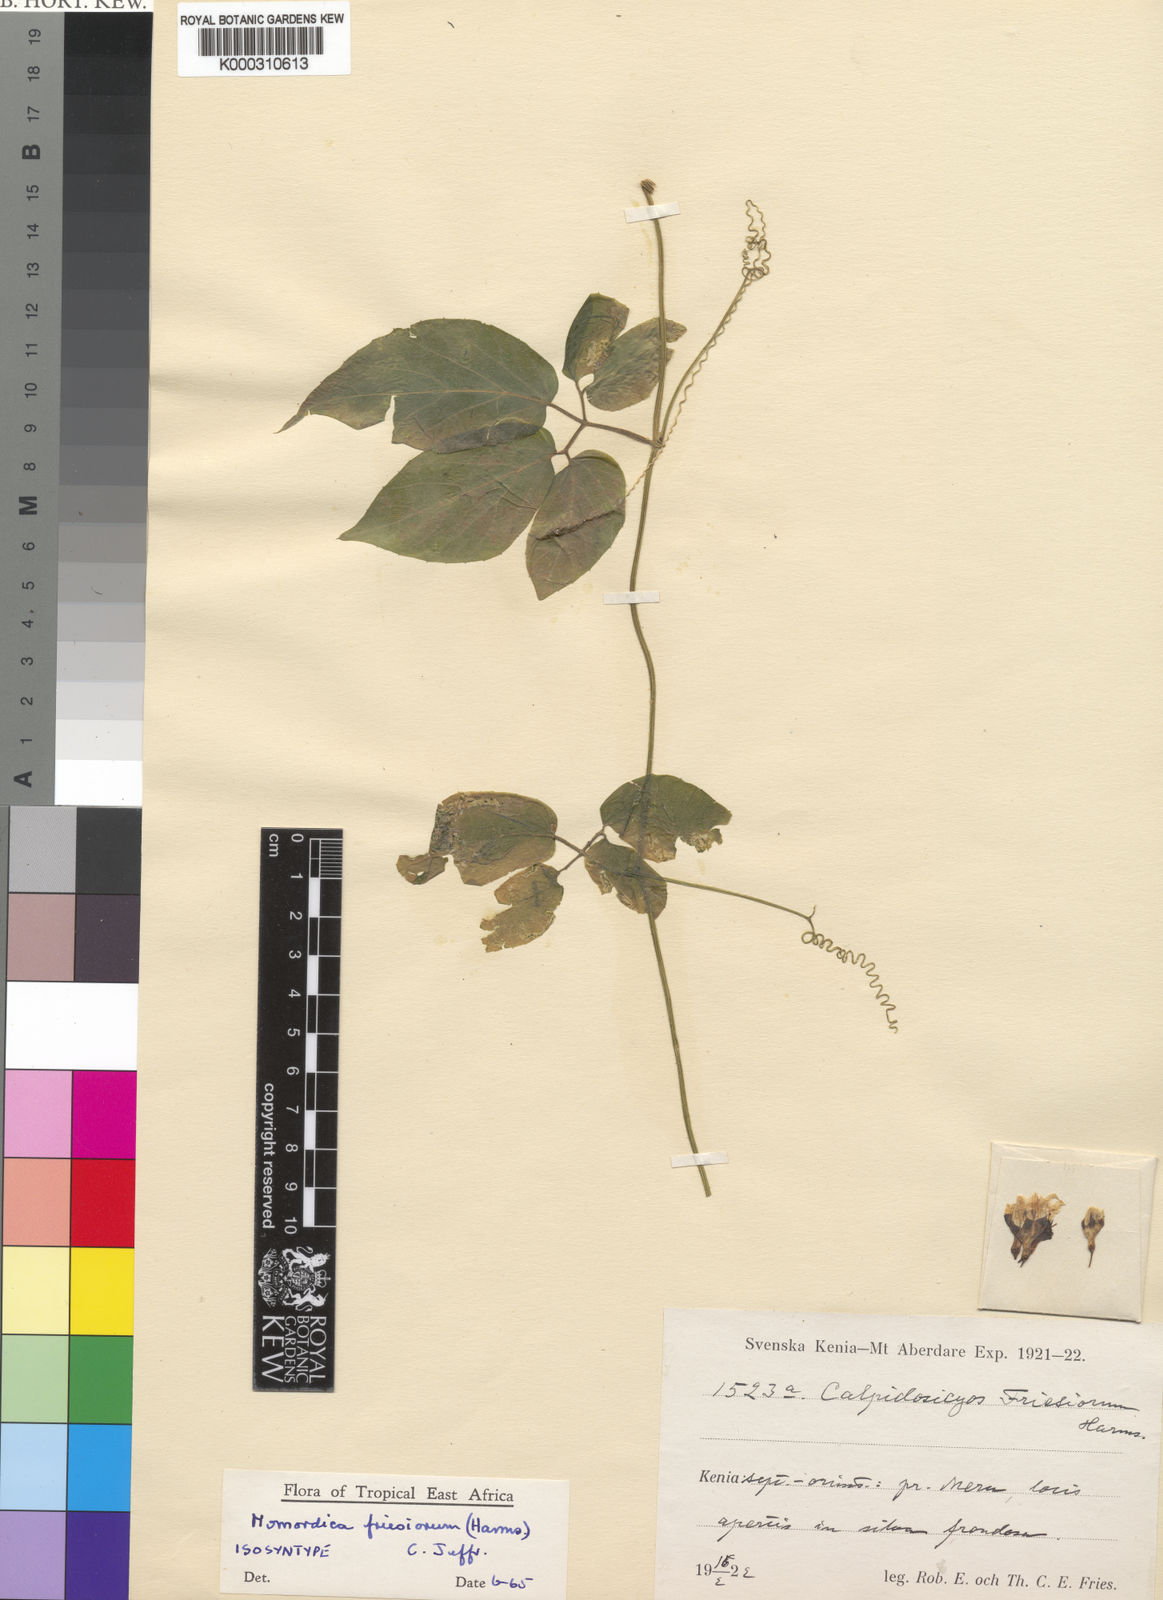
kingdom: Plantae
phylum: Tracheophyta
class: Magnoliopsida
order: Cucurbitales
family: Cucurbitaceae
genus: Momordica
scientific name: Momordica friesiorum
